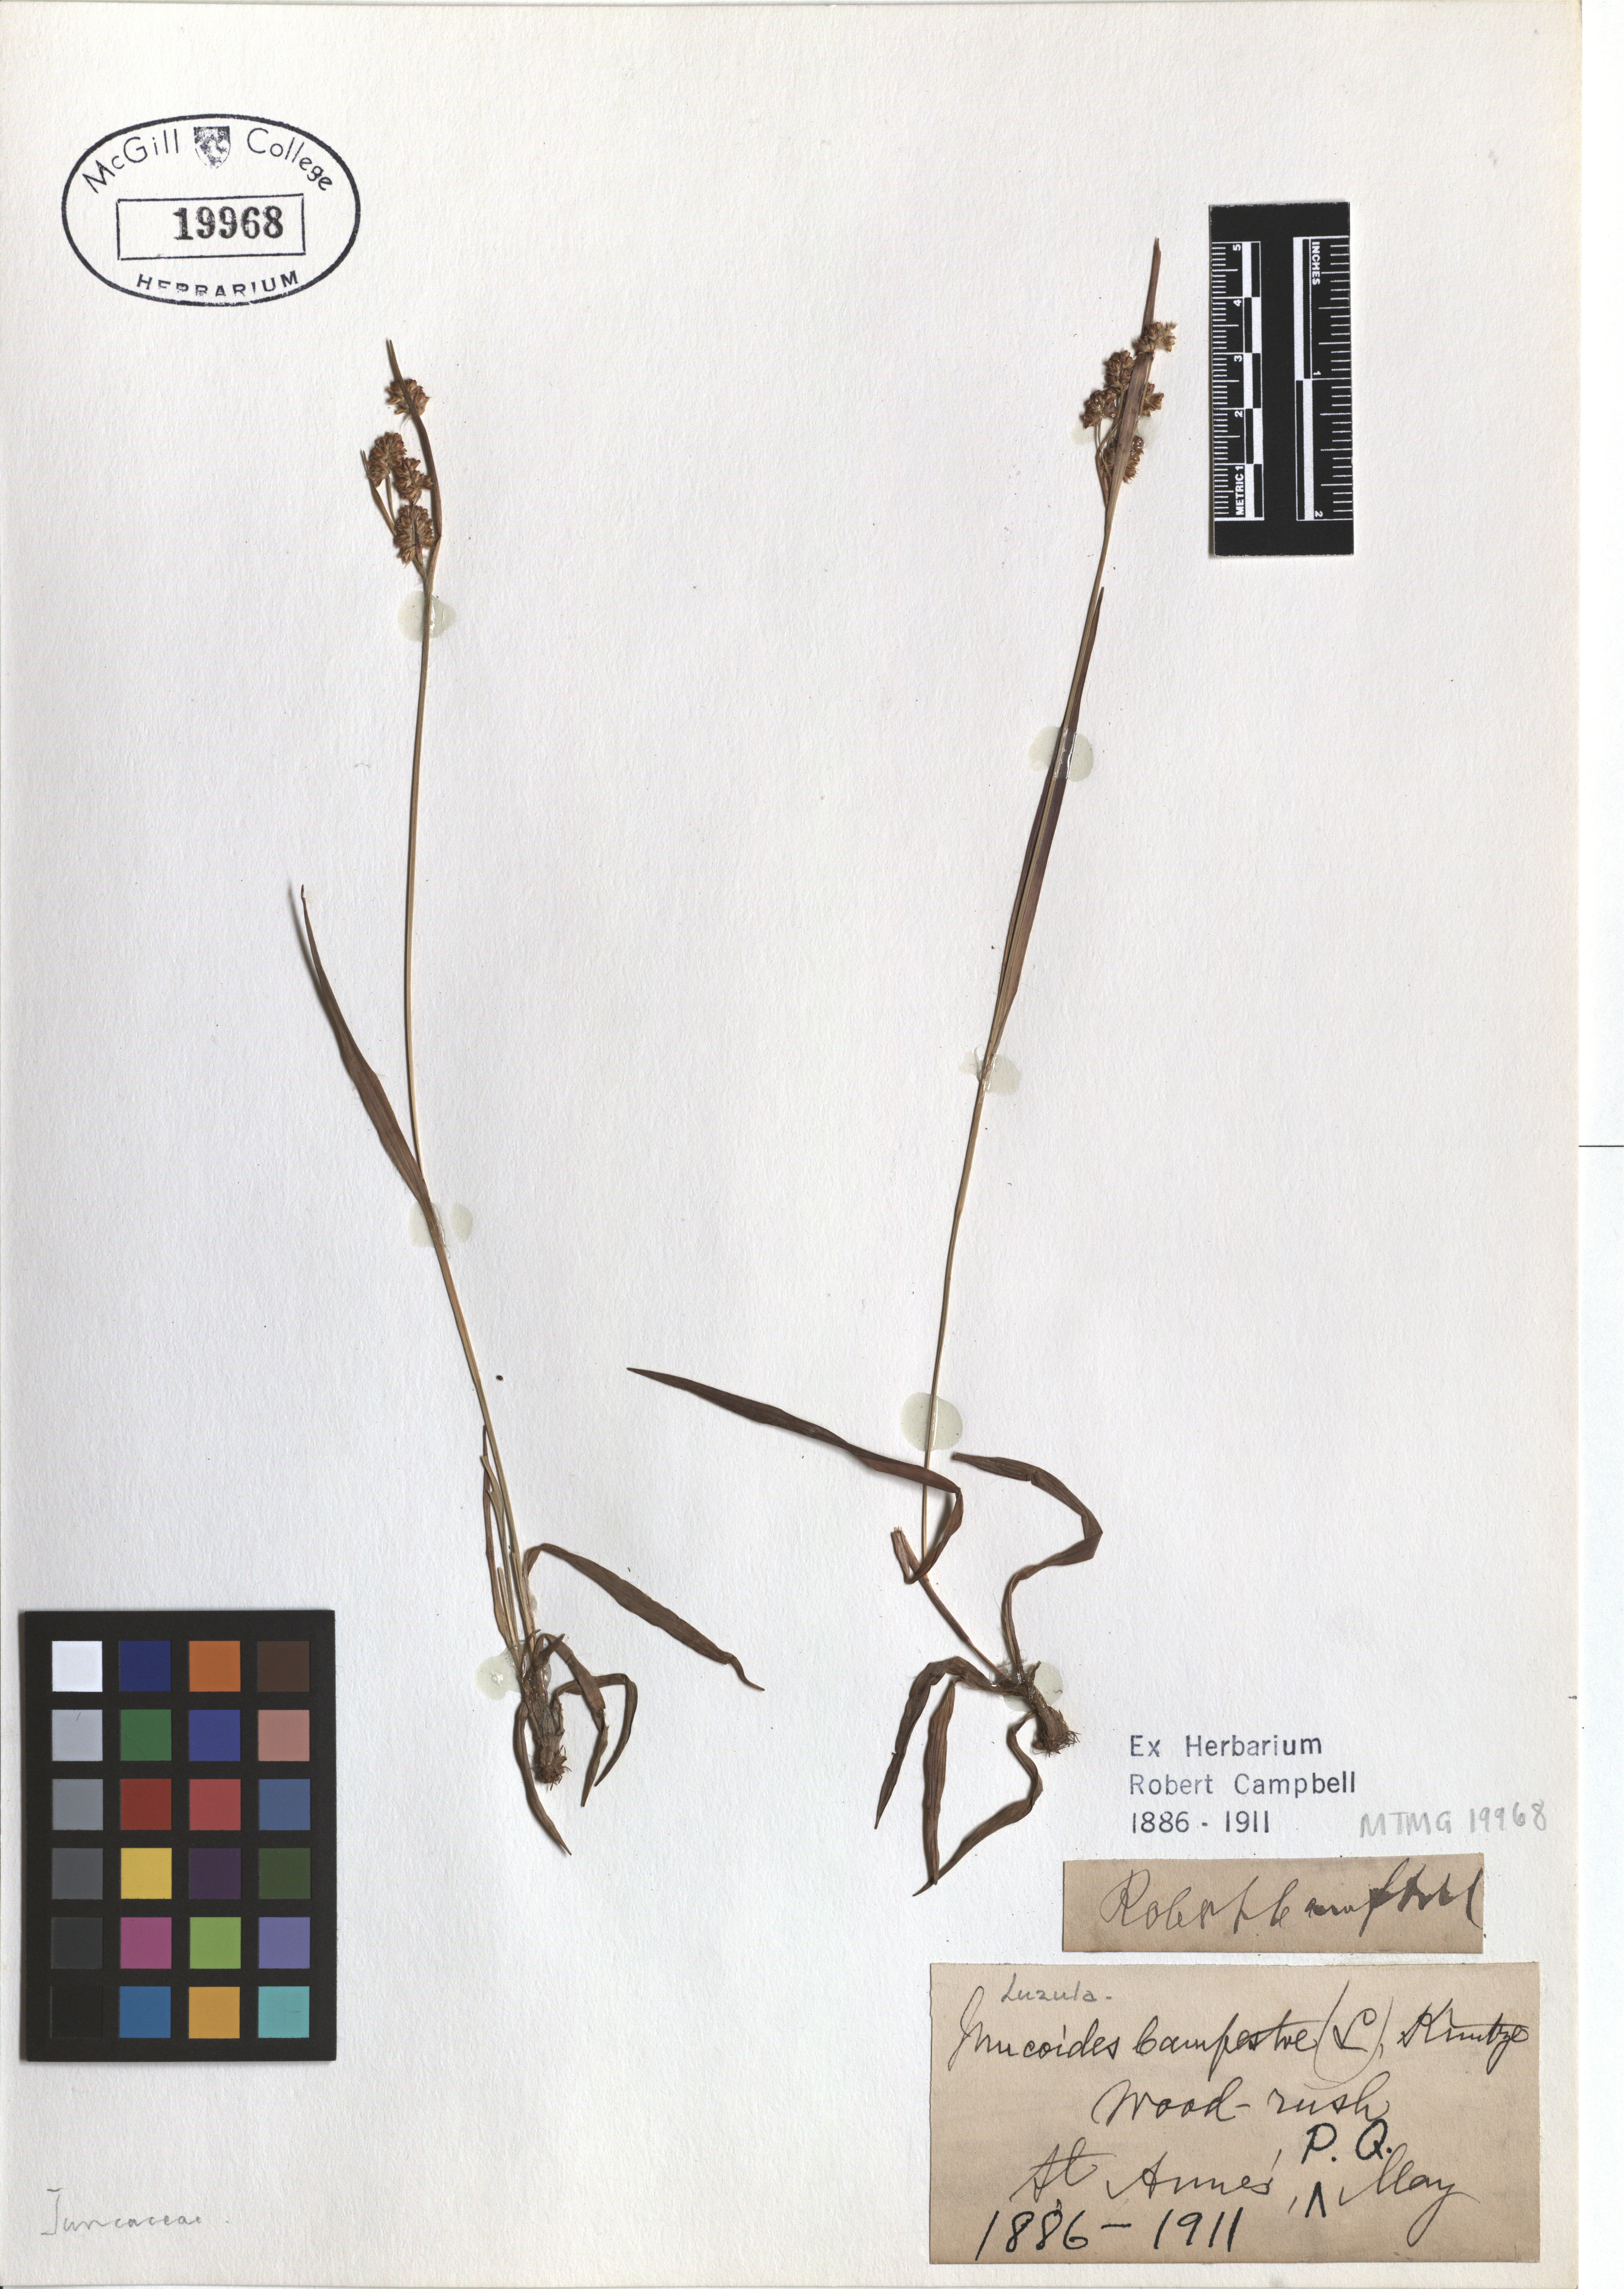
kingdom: Plantae
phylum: Tracheophyta
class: Liliopsida
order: Poales
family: Juncaceae
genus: Luzula
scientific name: Luzula campestris
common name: Field wood-rush
